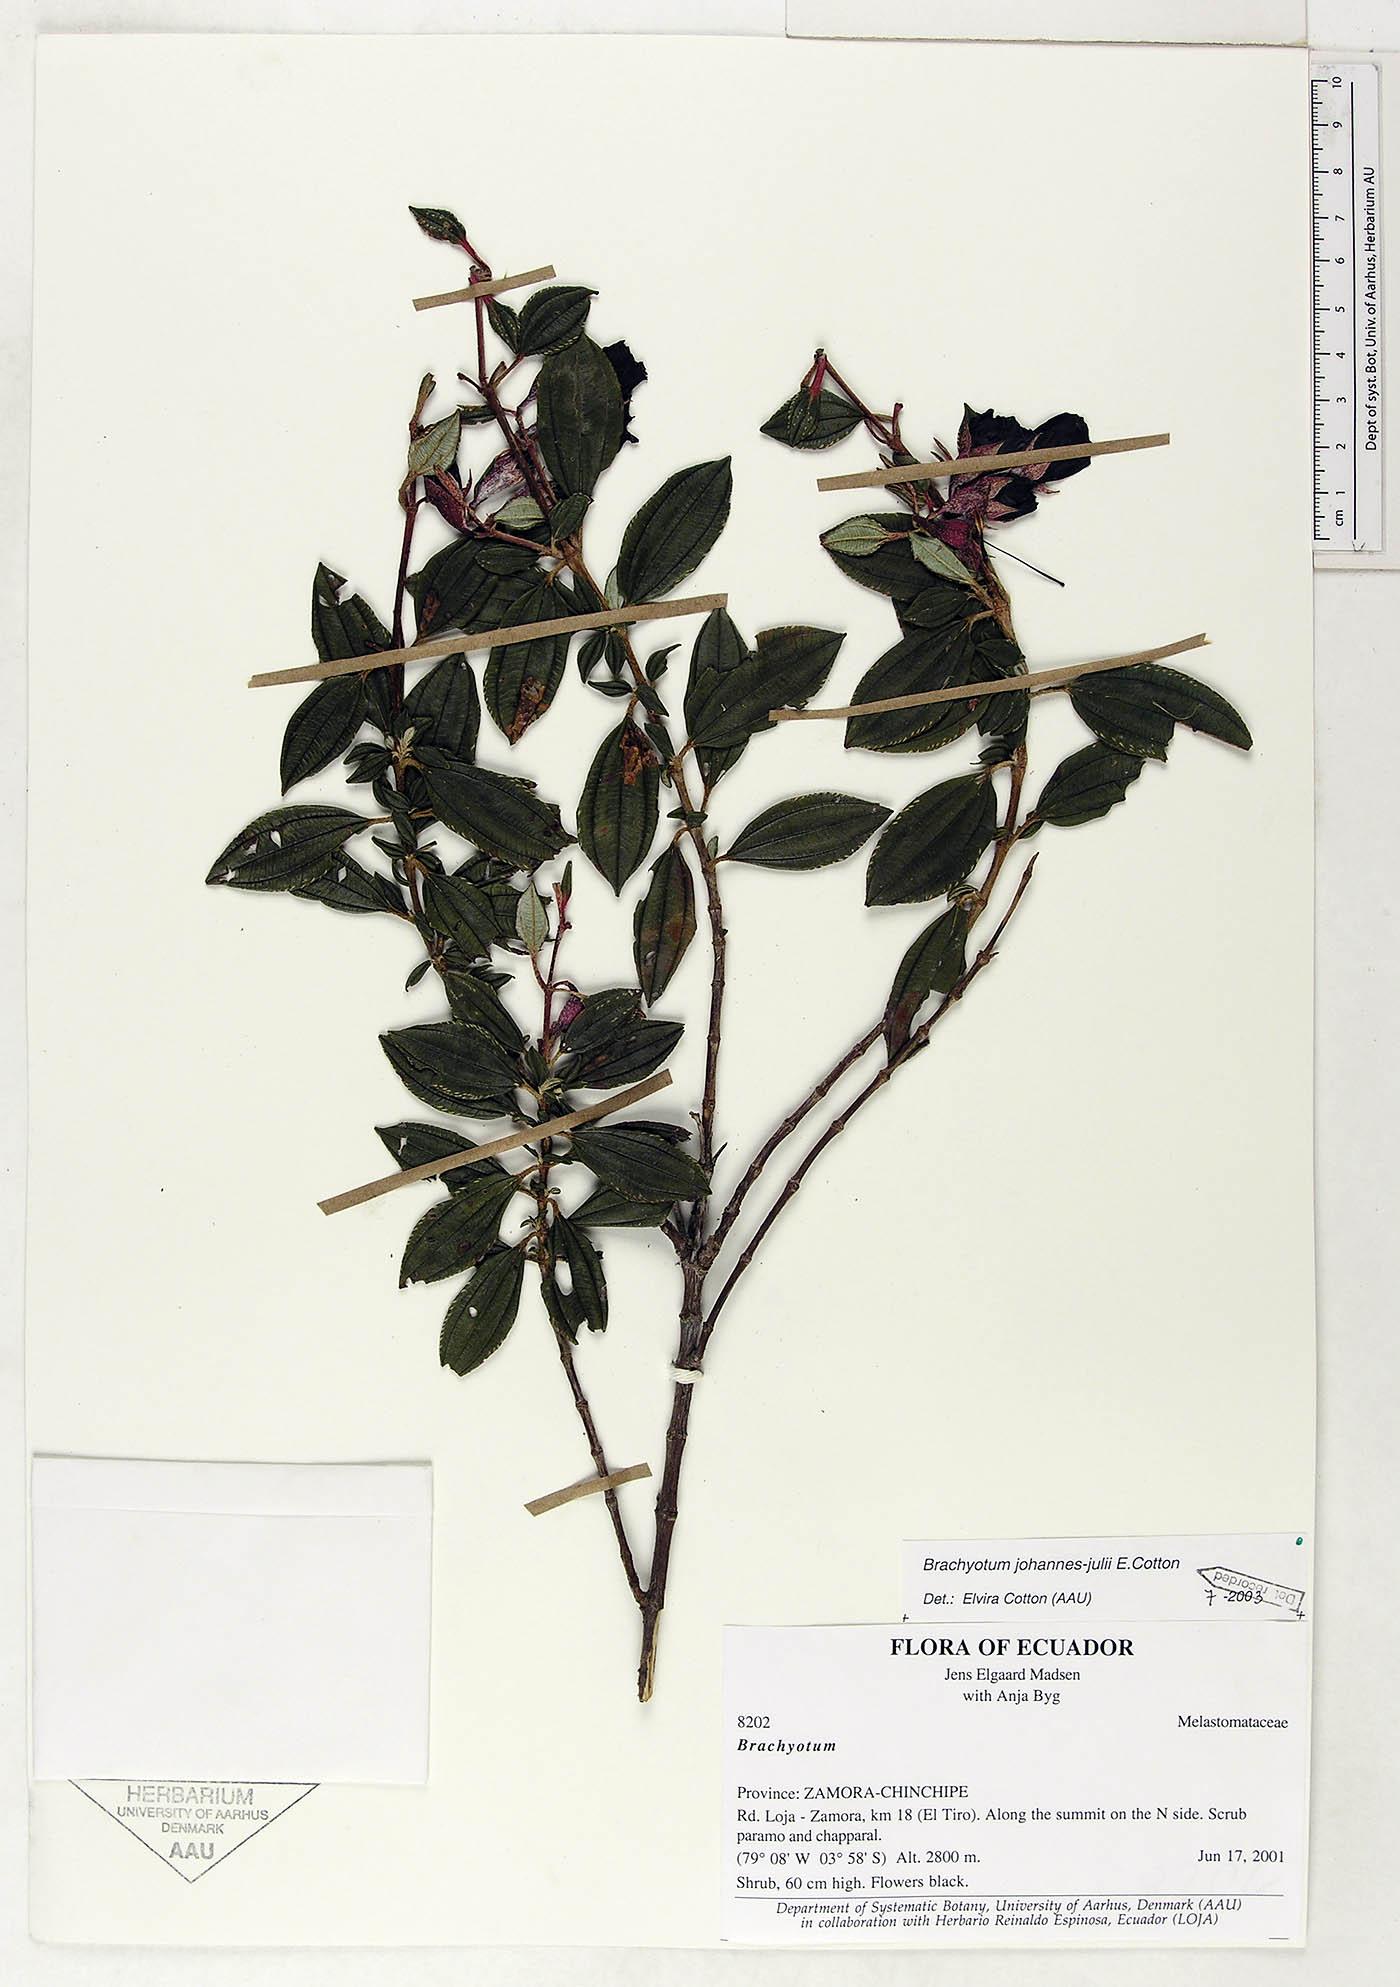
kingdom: Plantae
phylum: Tracheophyta
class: Magnoliopsida
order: Myrtales
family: Melastomataceae
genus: Brachyotum
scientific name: Brachyotum johannes-julii
